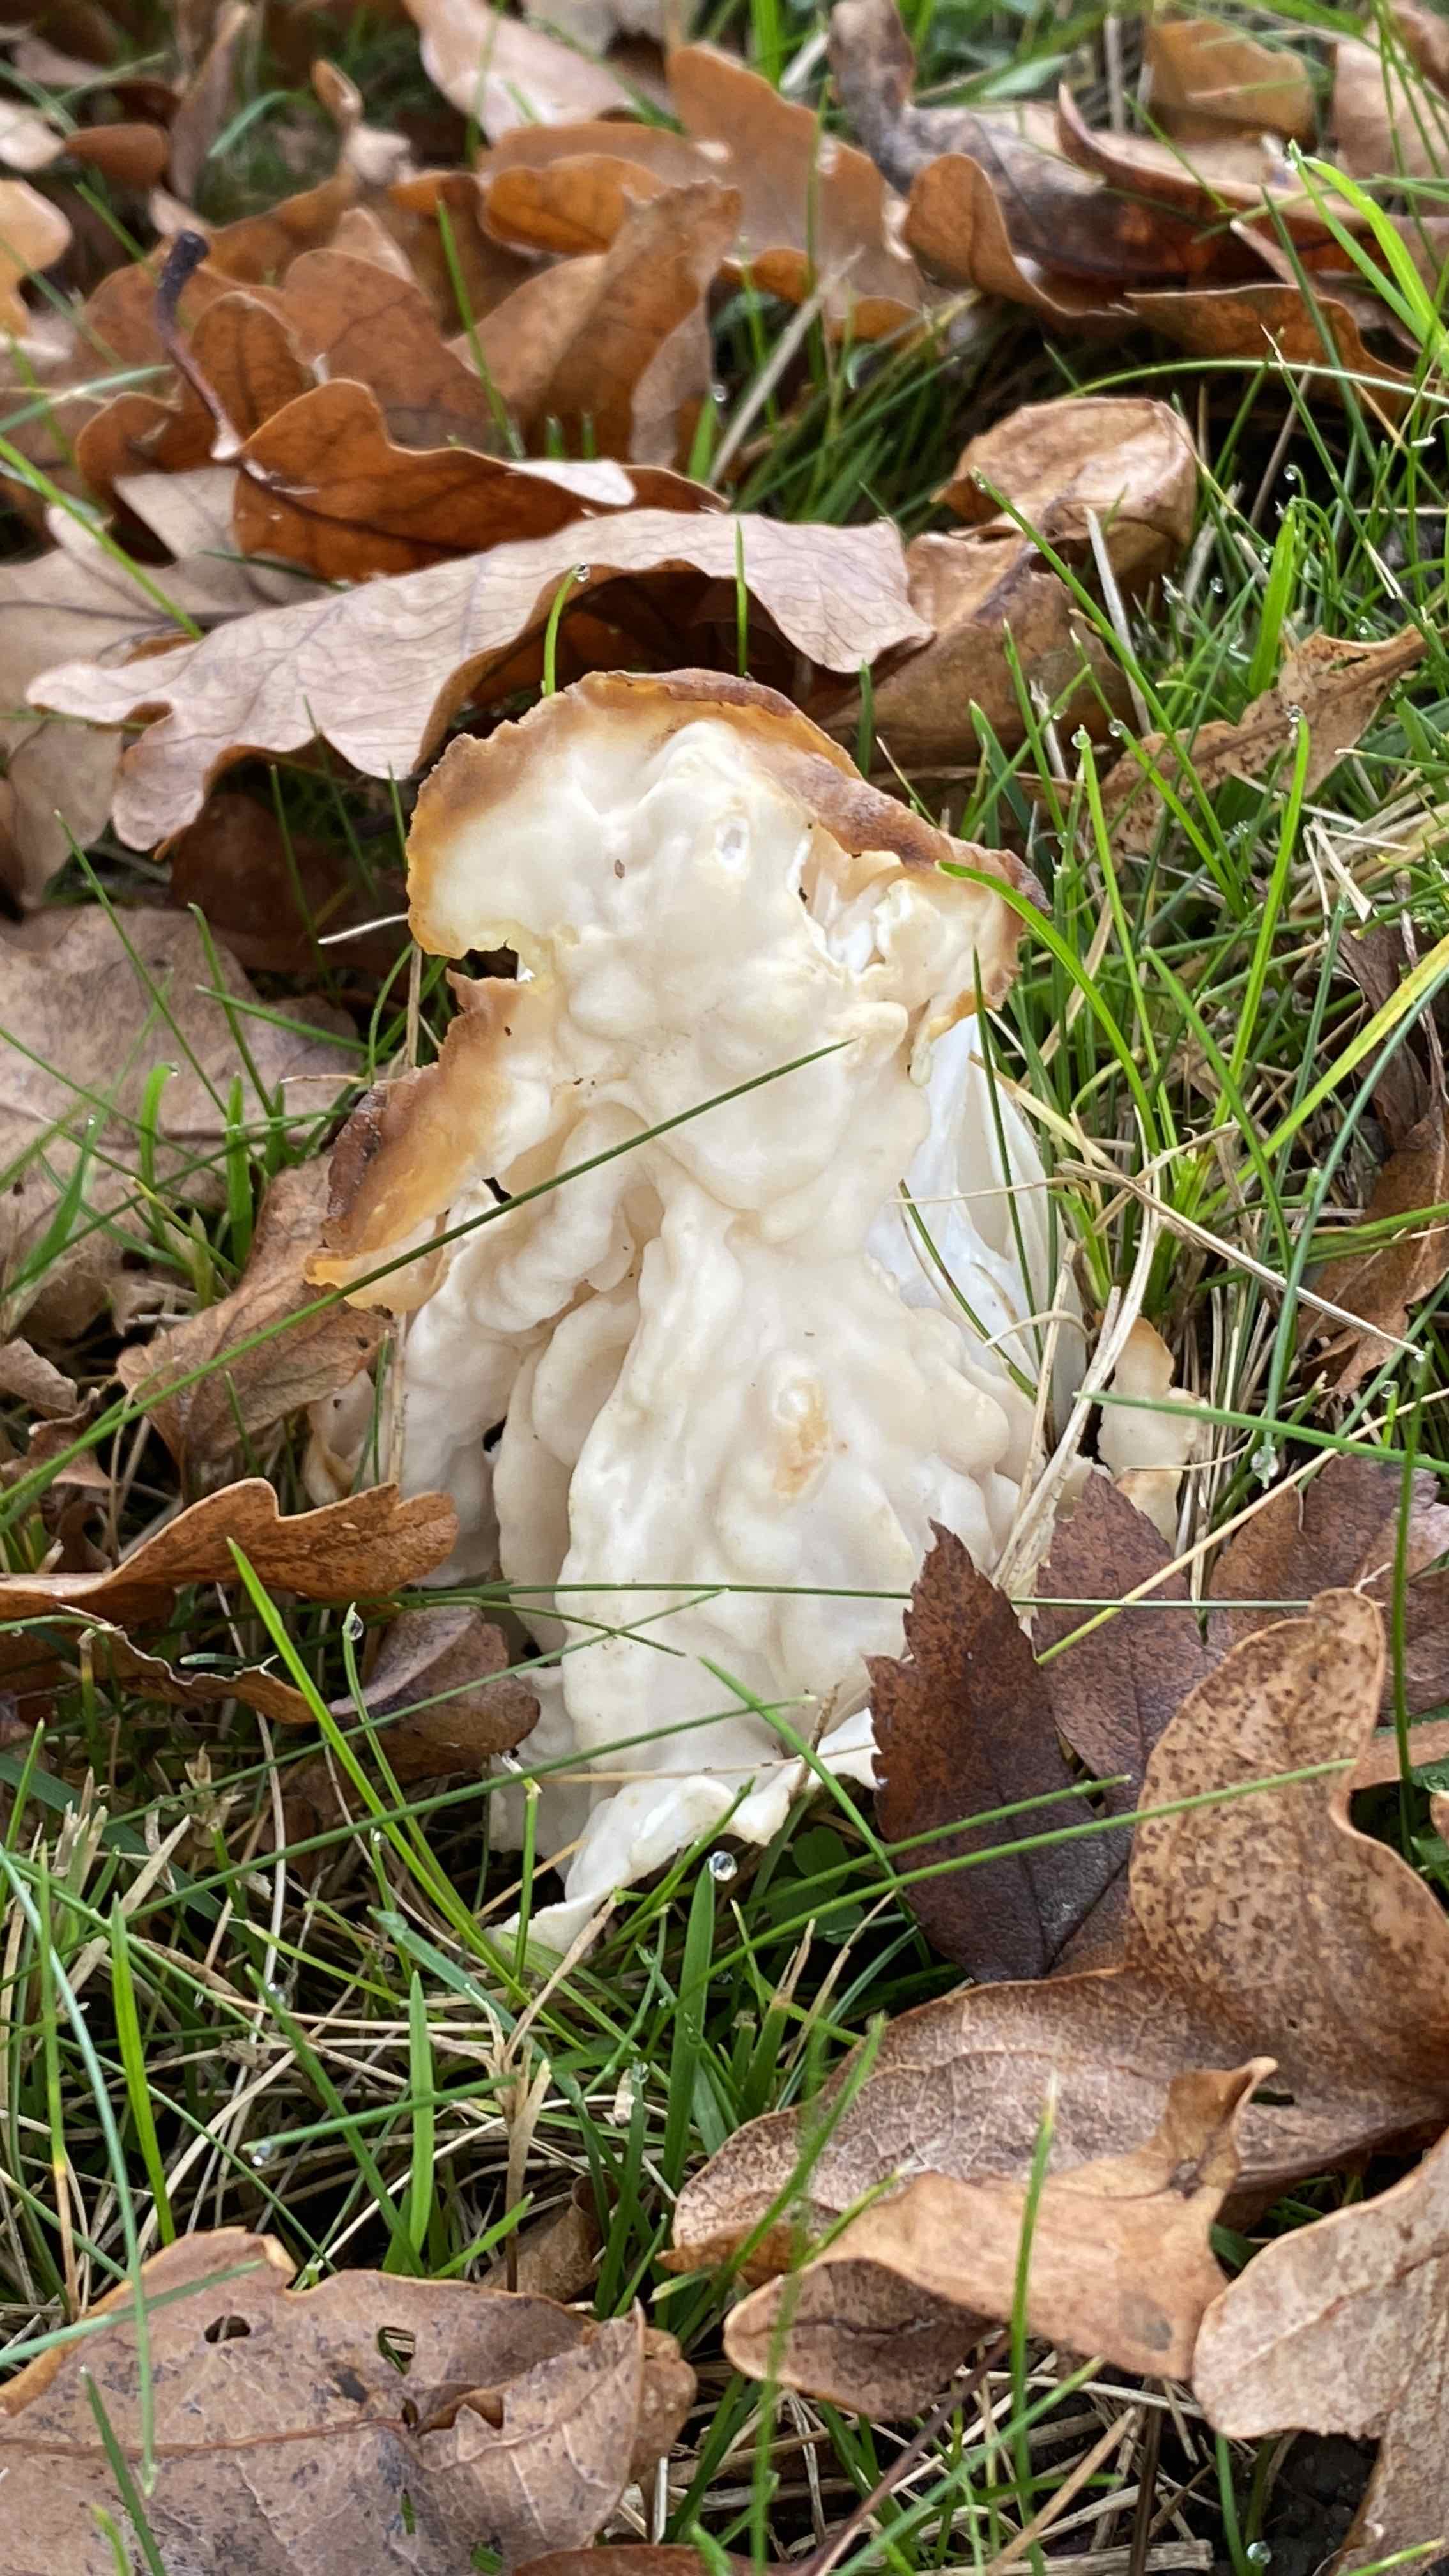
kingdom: Fungi
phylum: Ascomycota
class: Pezizomycetes
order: Pezizales
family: Helvellaceae
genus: Helvella
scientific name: Helvella crispa
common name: kruset foldhat
